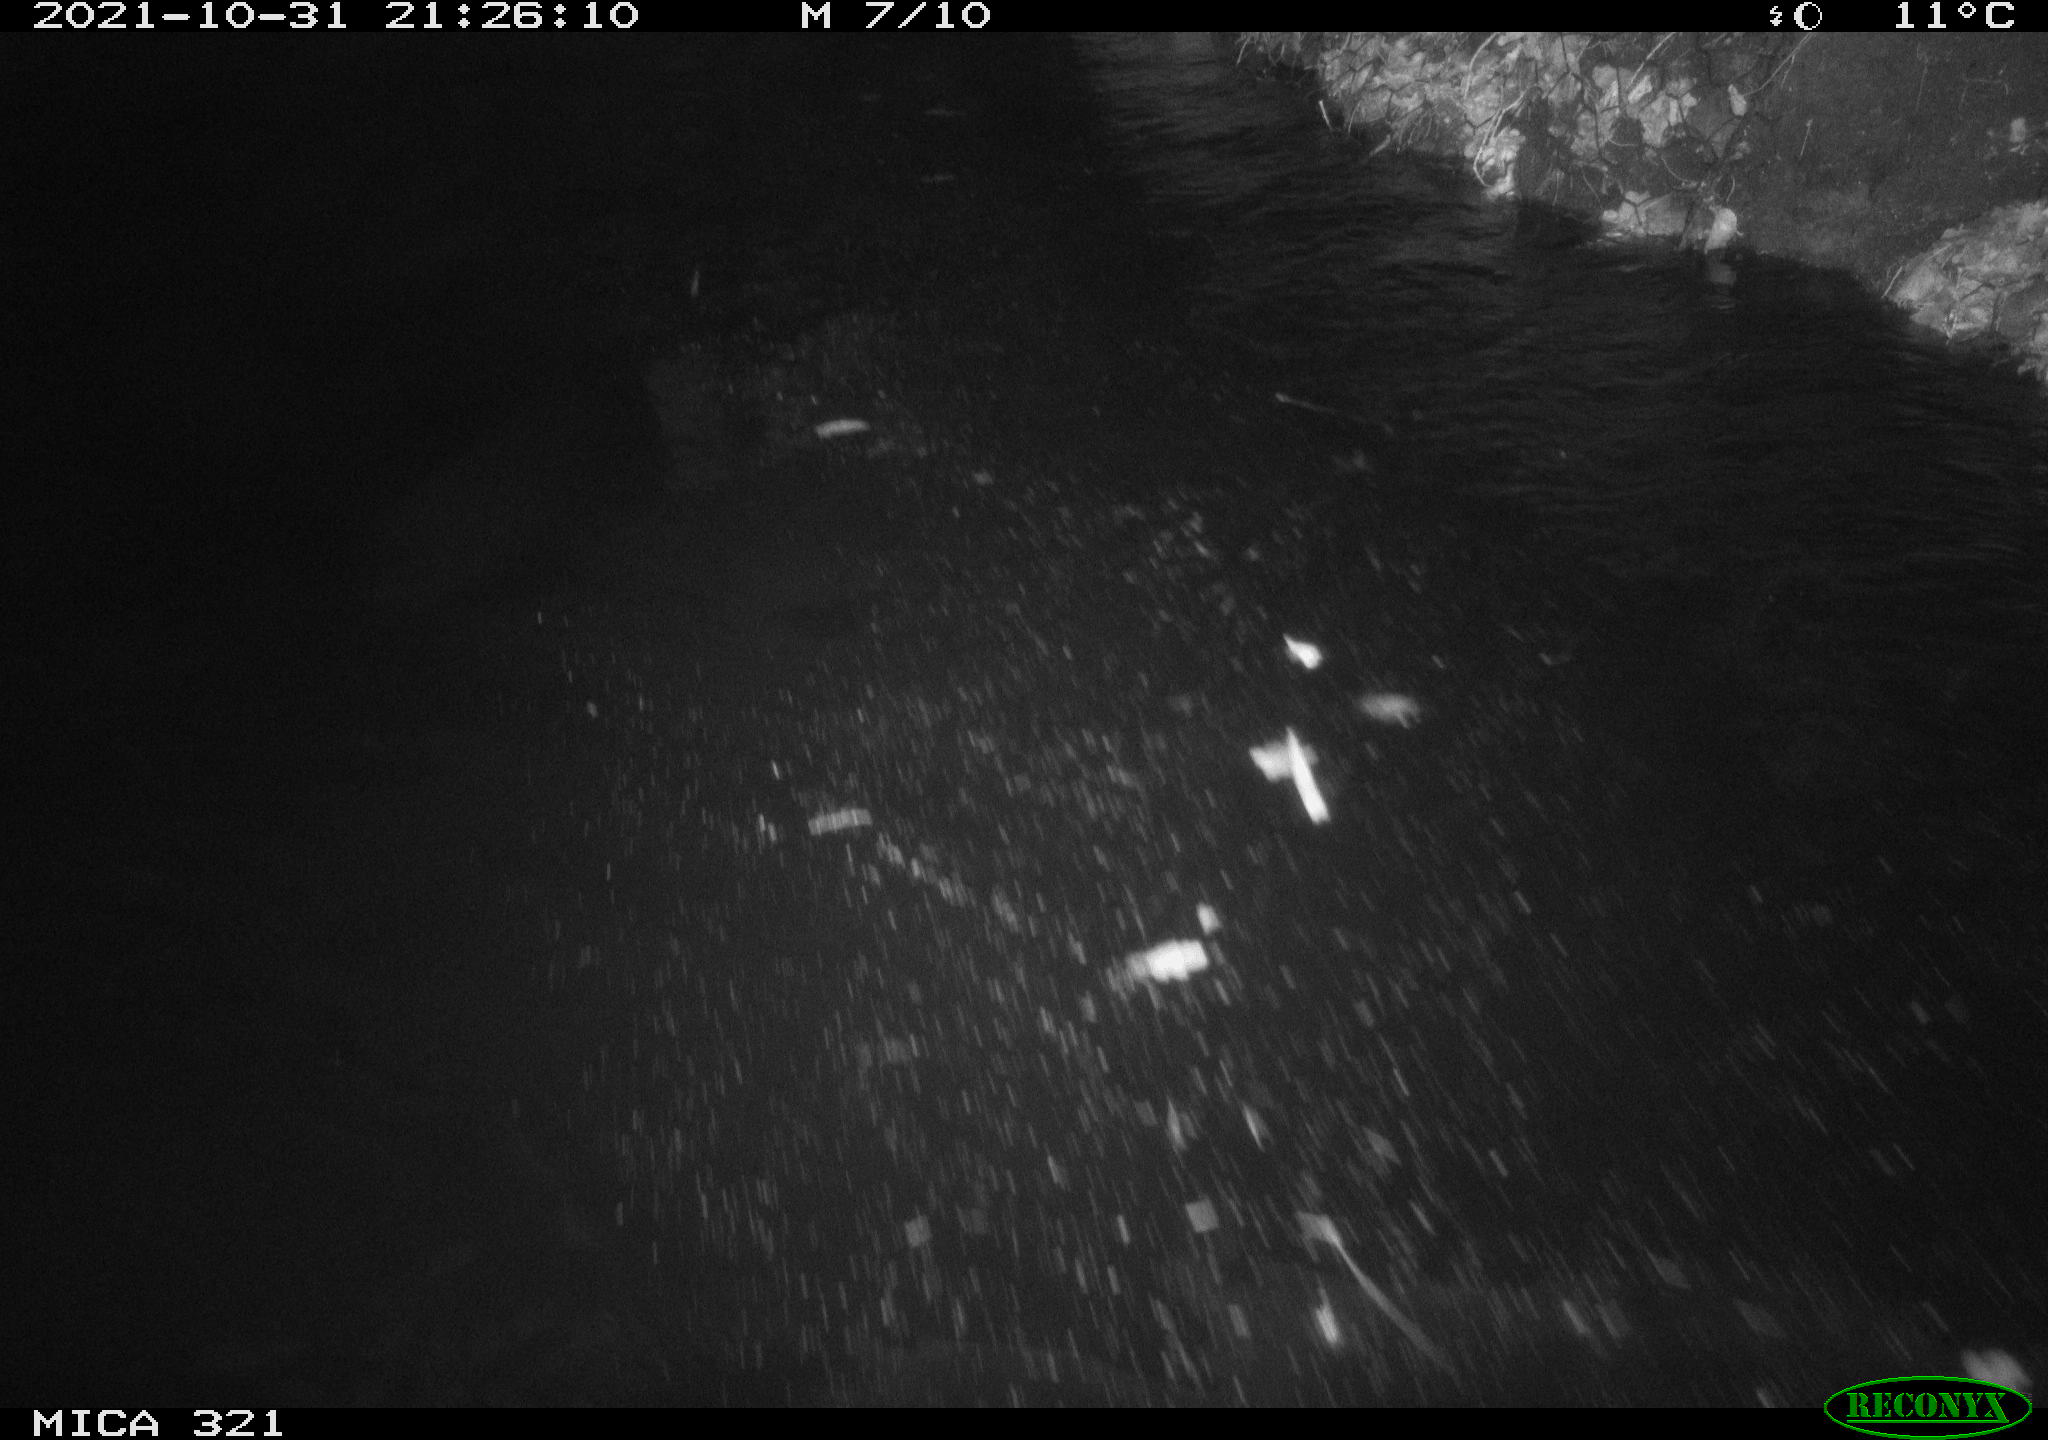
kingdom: Animalia
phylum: Chordata
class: Mammalia
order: Rodentia
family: Muridae
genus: Rattus
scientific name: Rattus norvegicus
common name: Brown rat
